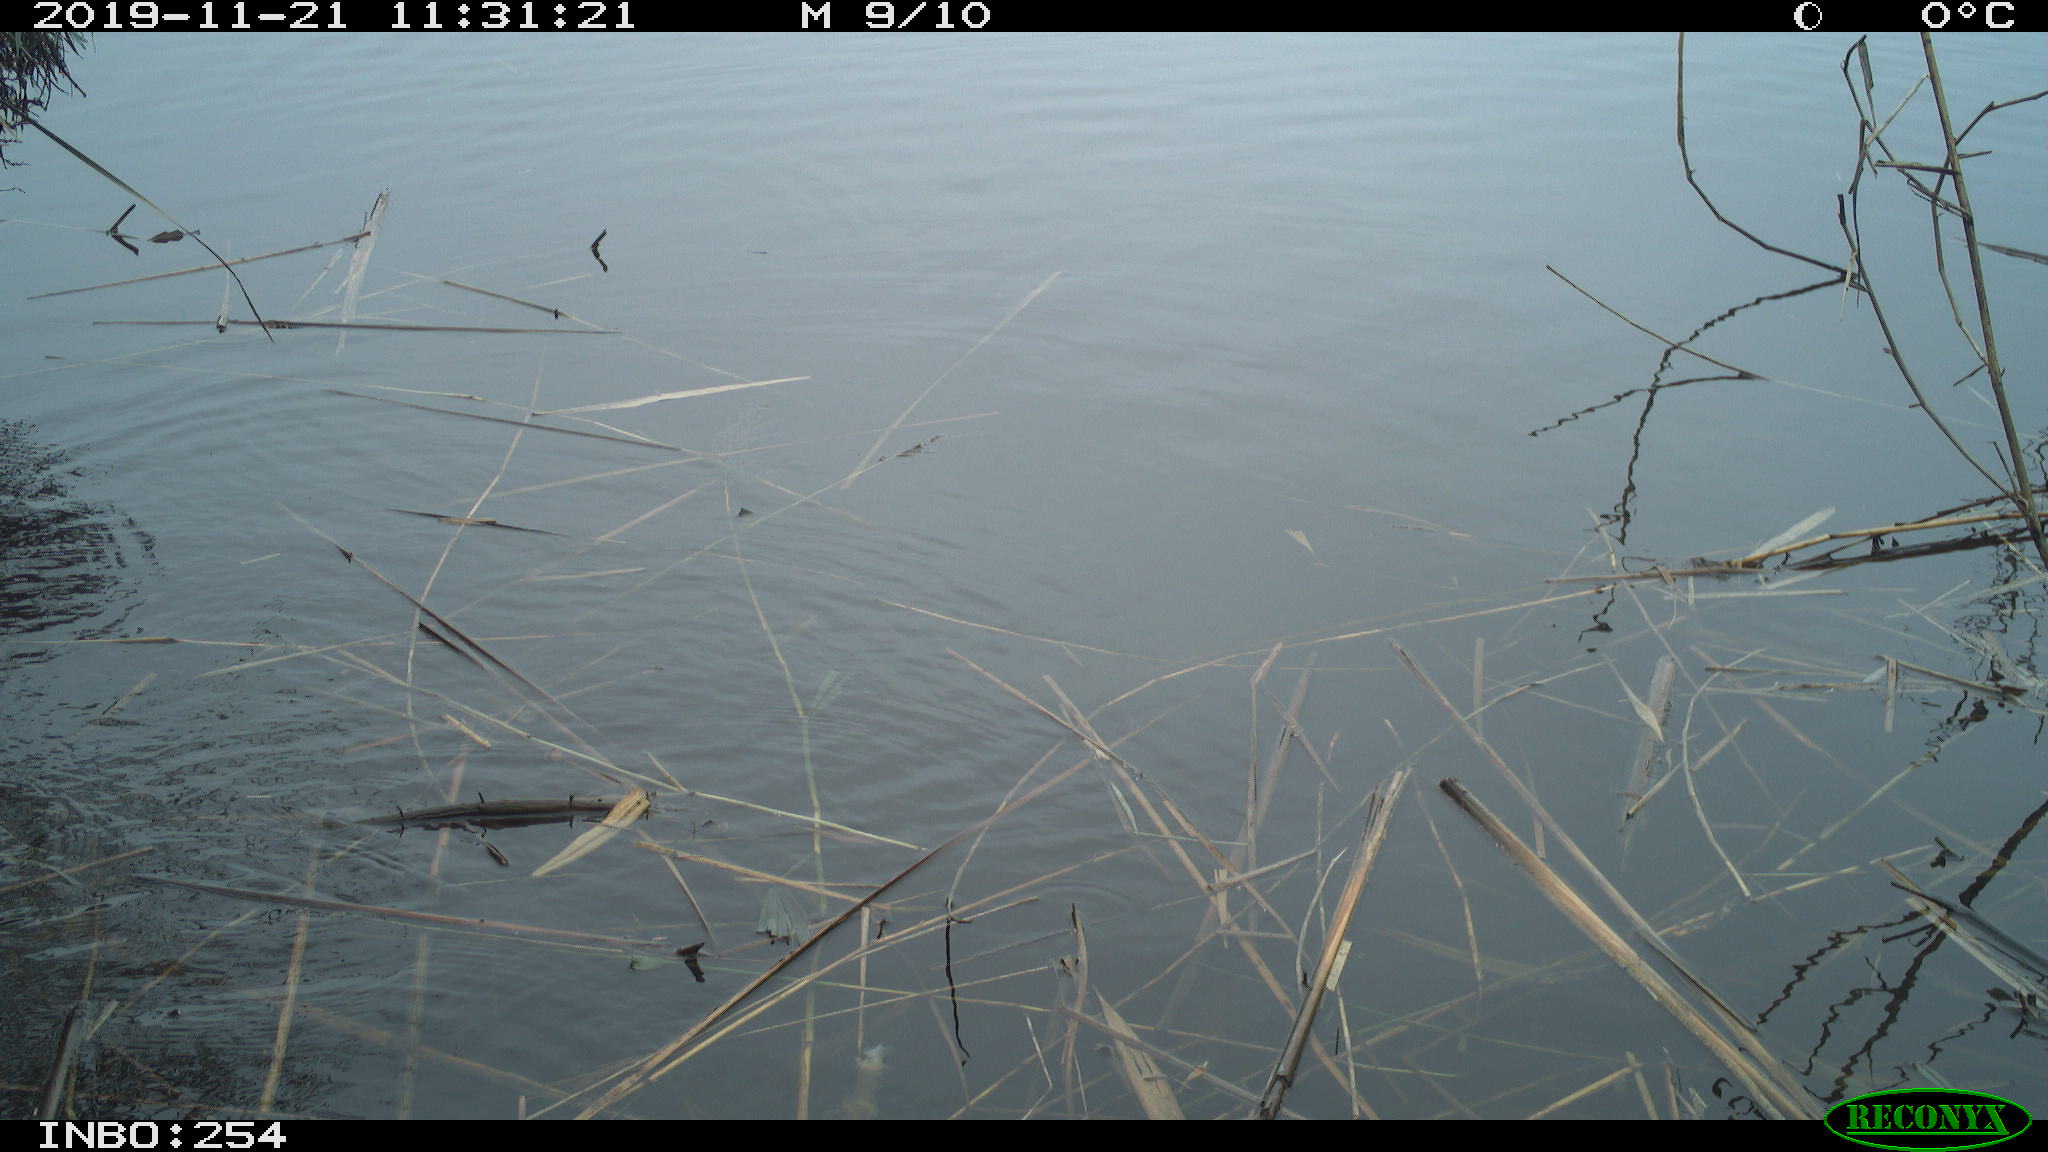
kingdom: Animalia
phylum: Chordata
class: Aves
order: Gruiformes
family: Rallidae
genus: Gallinula
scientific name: Gallinula chloropus
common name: Common moorhen
